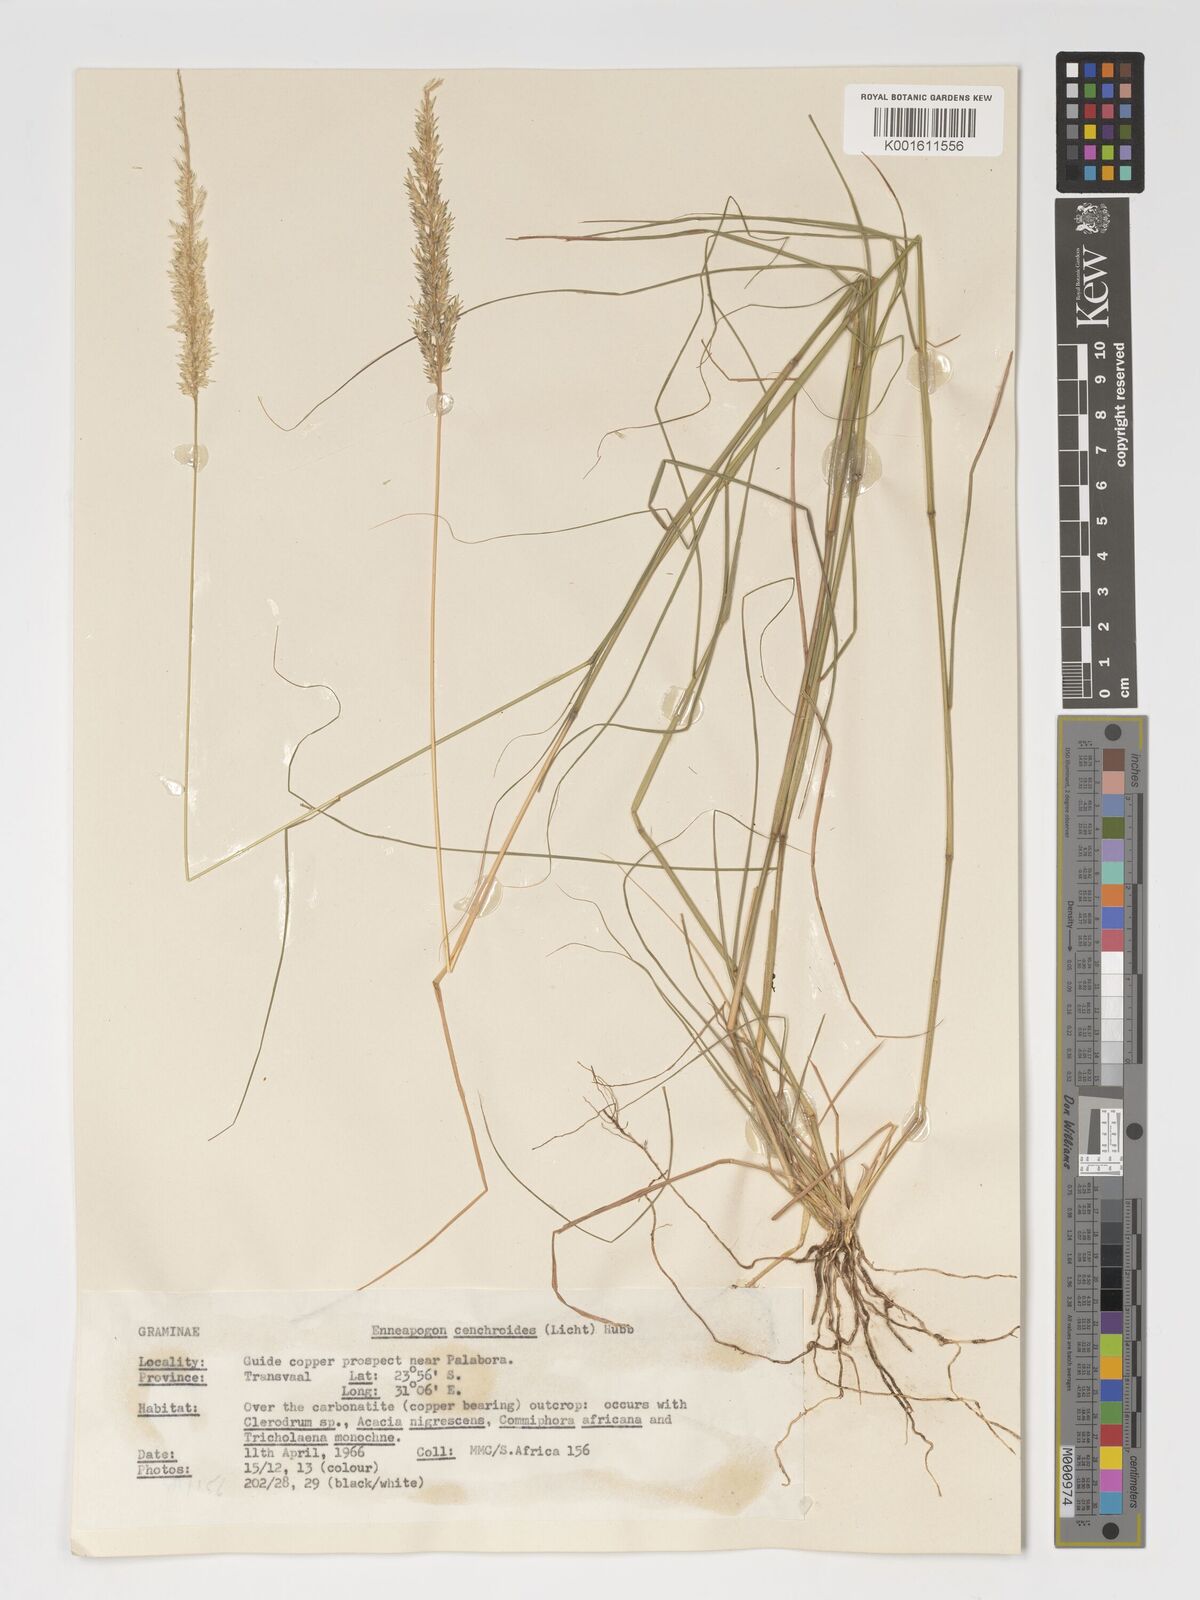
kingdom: Plantae
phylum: Tracheophyta
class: Liliopsida
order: Poales
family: Poaceae
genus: Enneapogon
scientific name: Enneapogon cenchroides
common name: Soft feather pappusgrass
